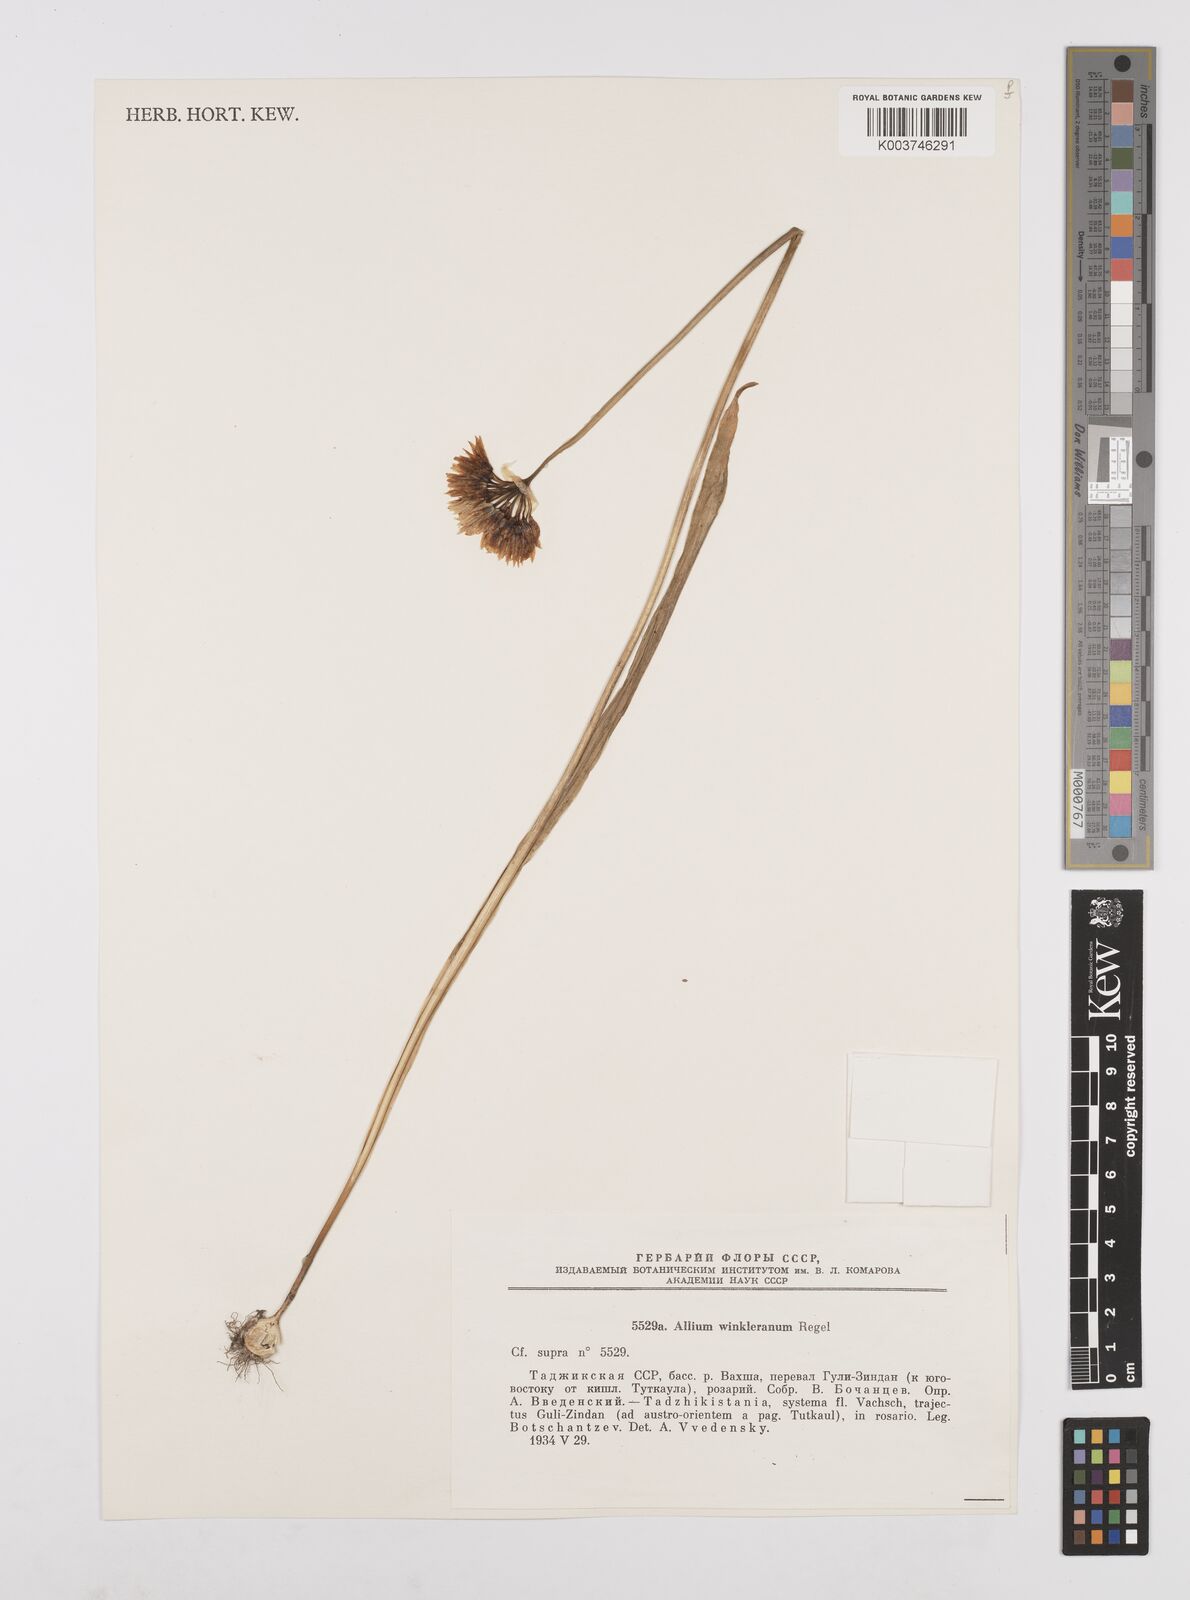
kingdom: Plantae
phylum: Tracheophyta
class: Liliopsida
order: Asparagales
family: Amaryllidaceae
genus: Allium
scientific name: Allium winklerianum
